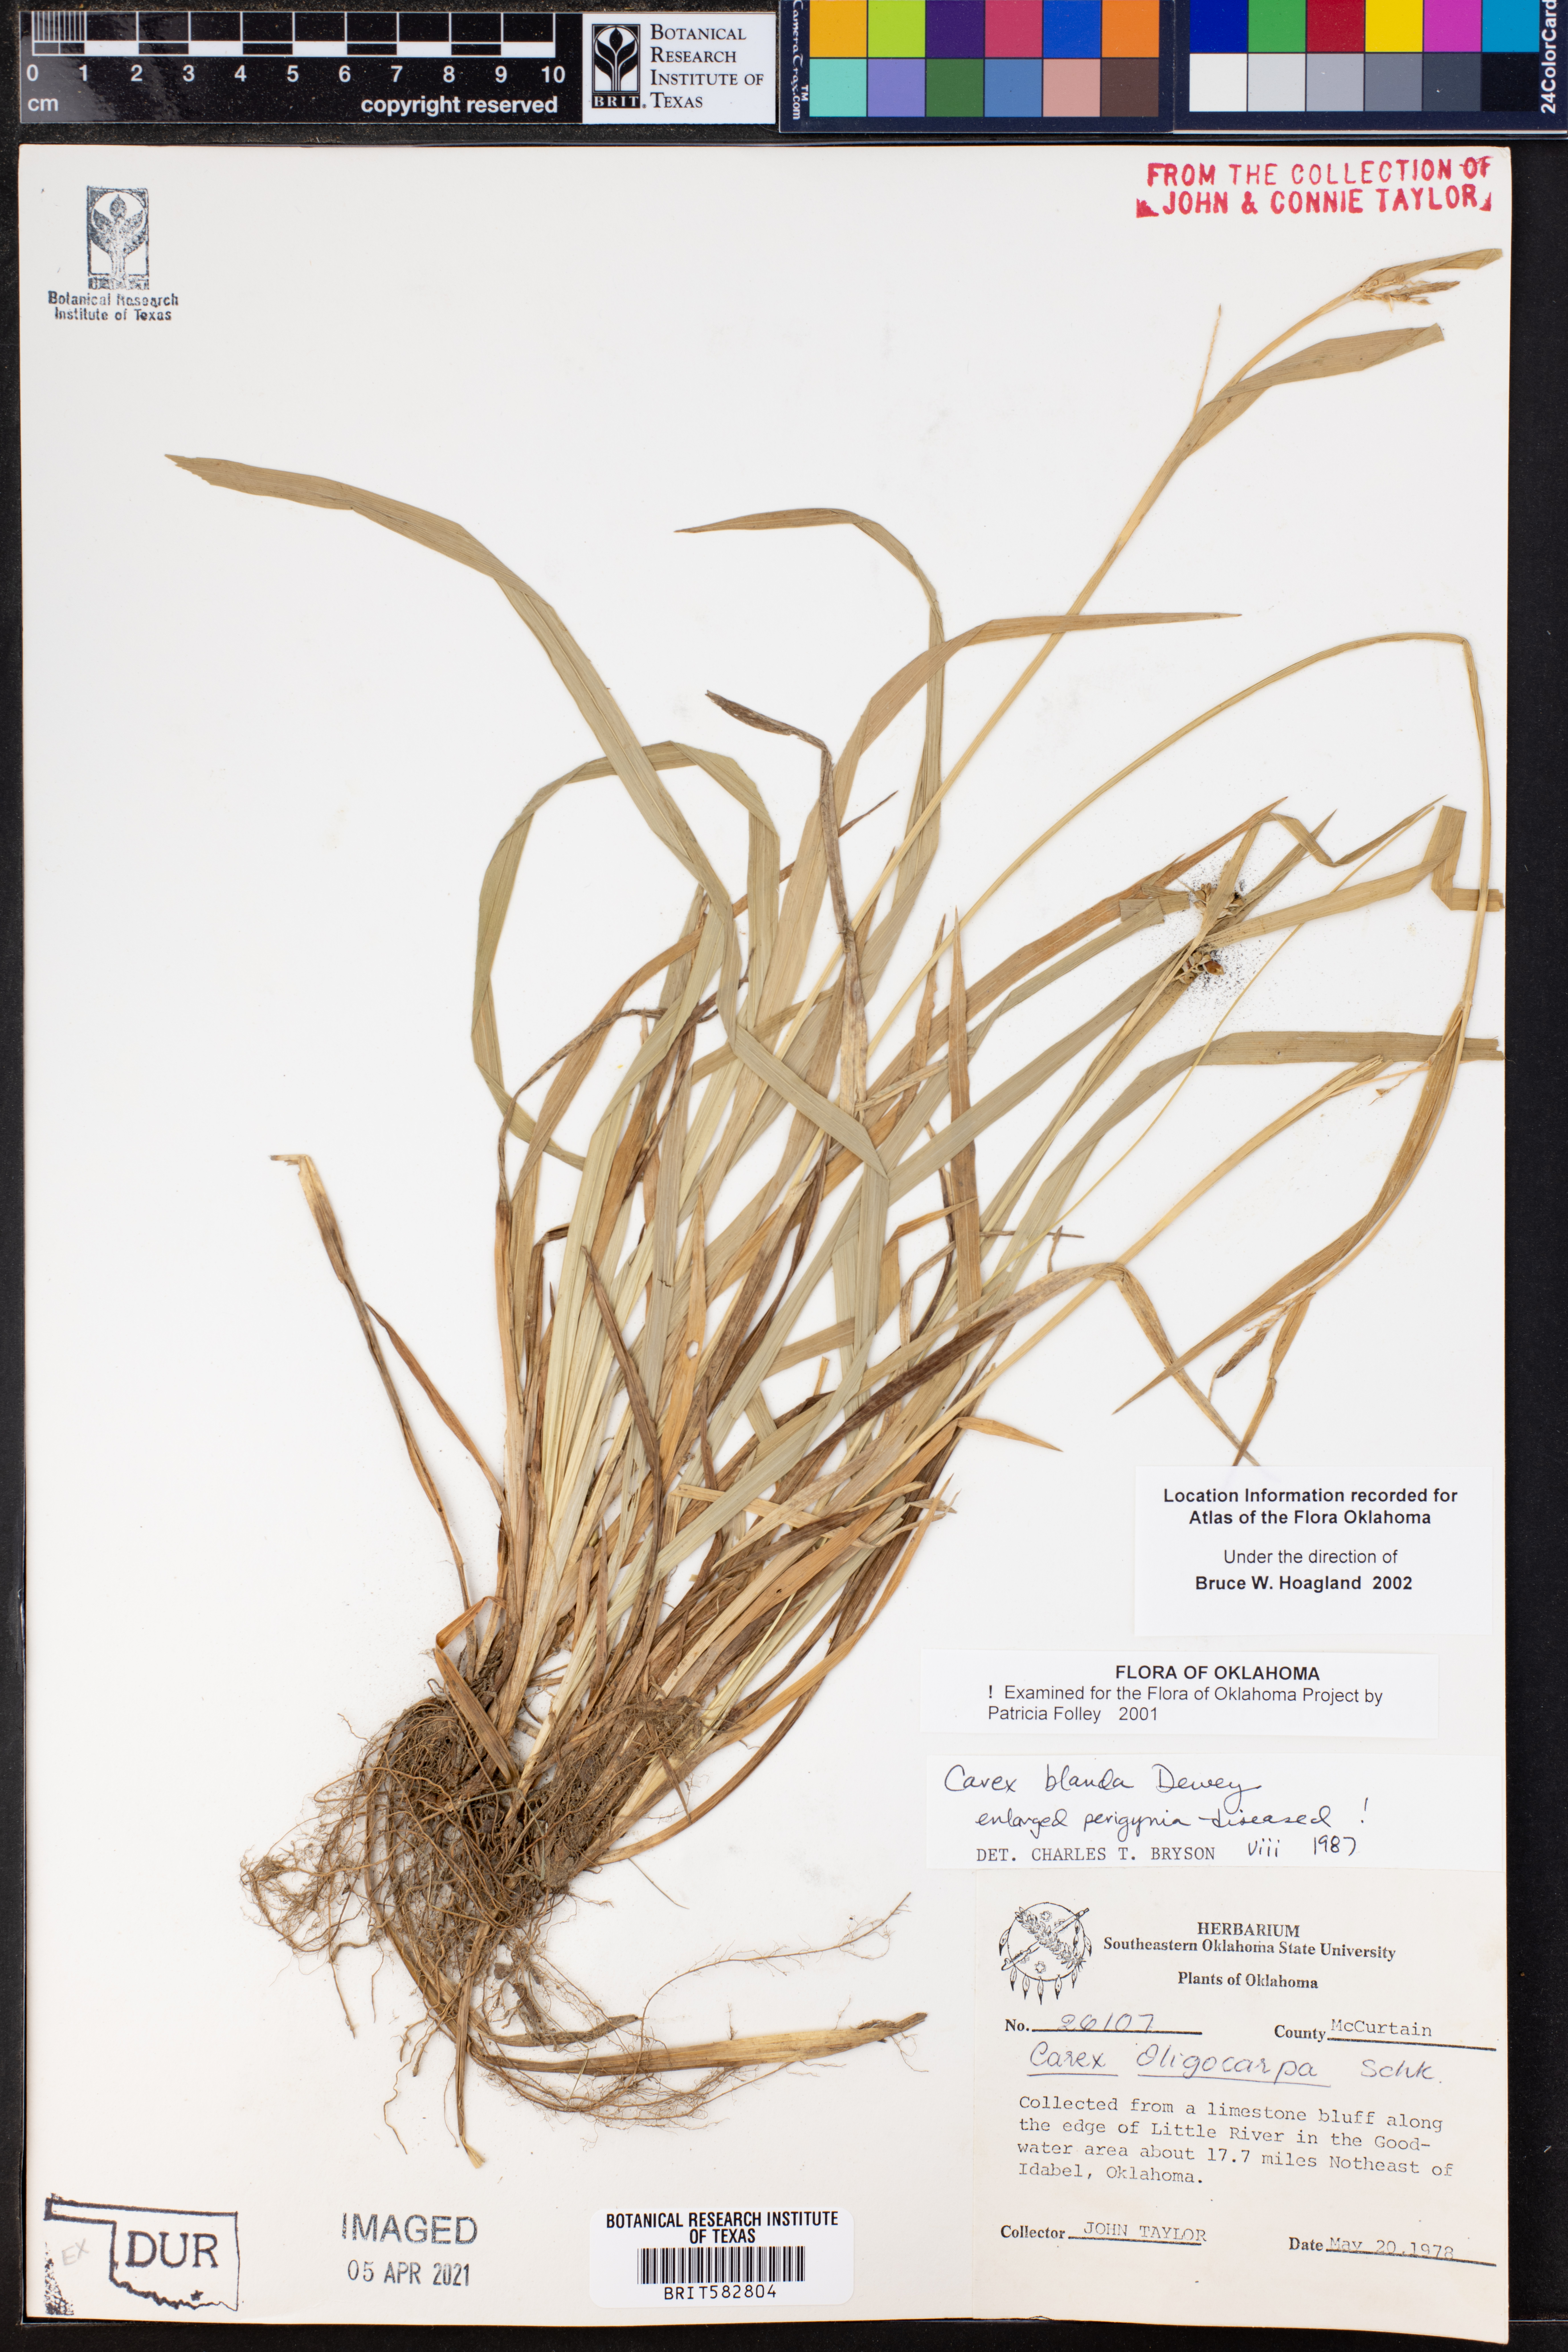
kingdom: Plantae
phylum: Tracheophyta
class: Liliopsida
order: Poales
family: Cyperaceae
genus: Carex
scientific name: Carex blanda
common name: Bland sedge
